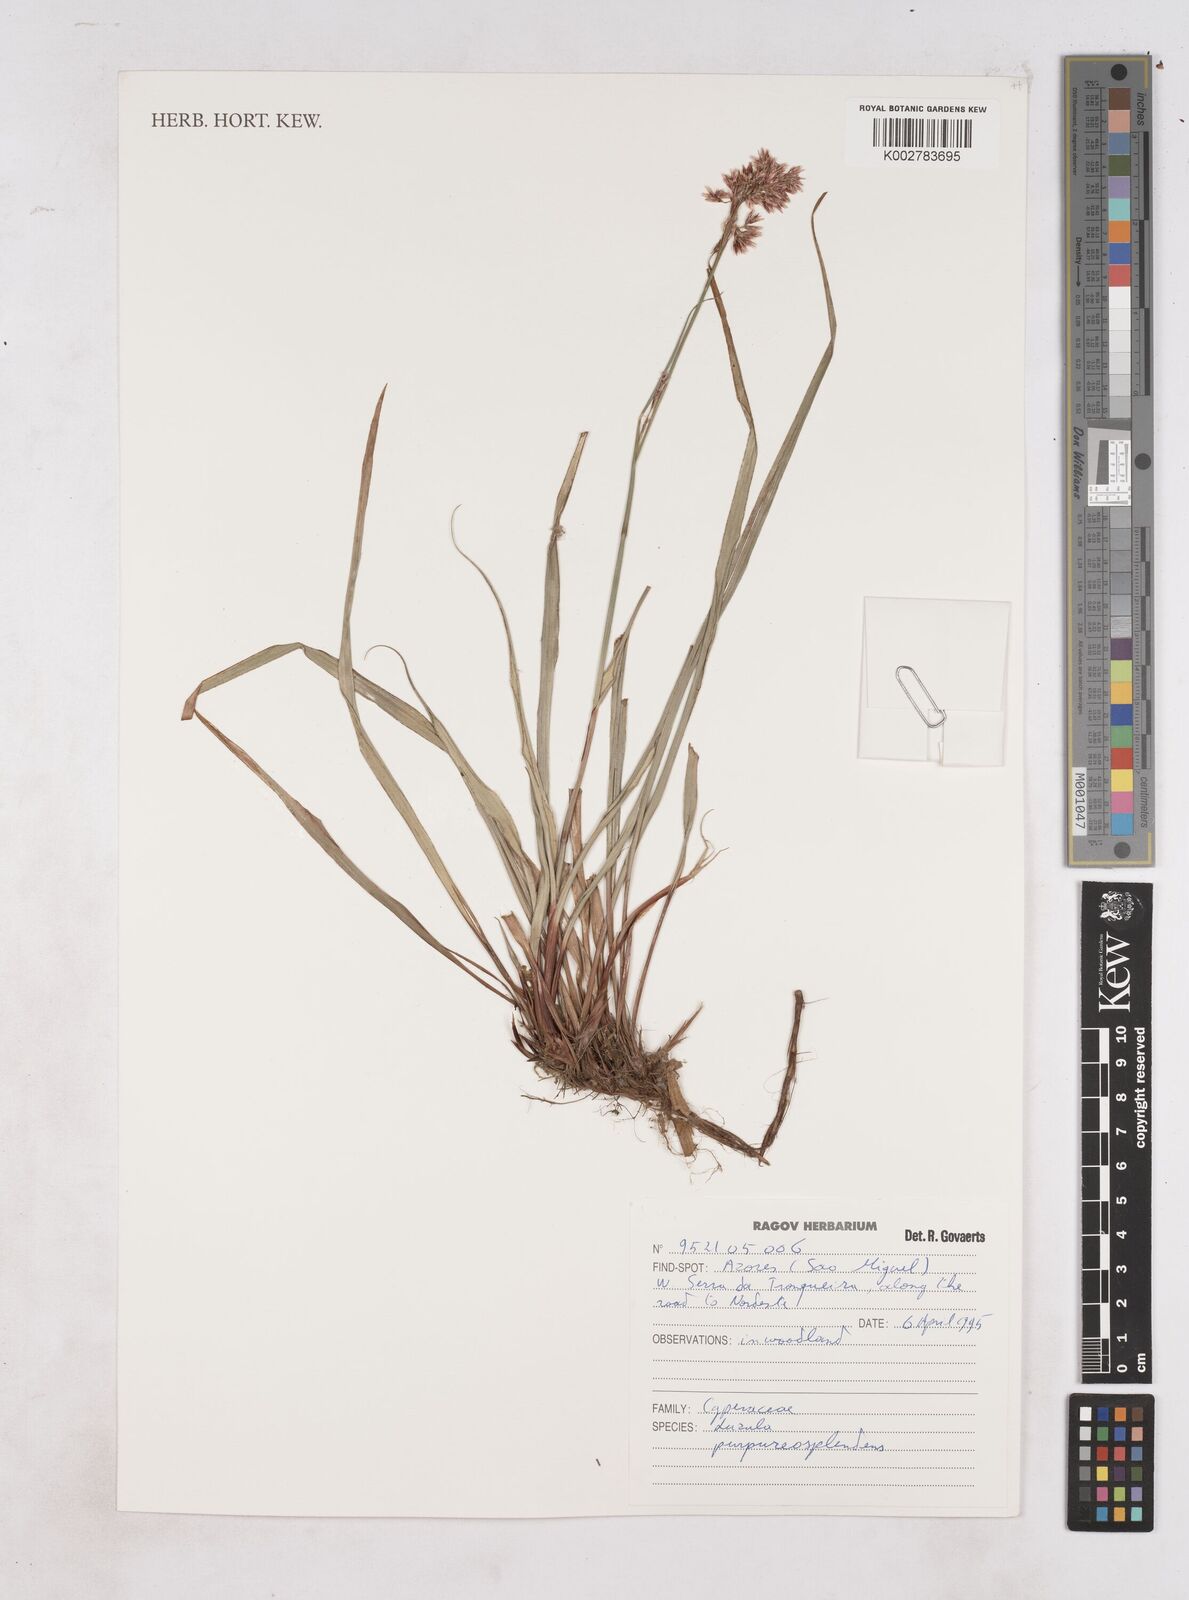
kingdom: Plantae
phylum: Tracheophyta
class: Liliopsida
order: Poales
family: Juncaceae
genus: Luzula
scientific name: Luzula purpureosplendens
